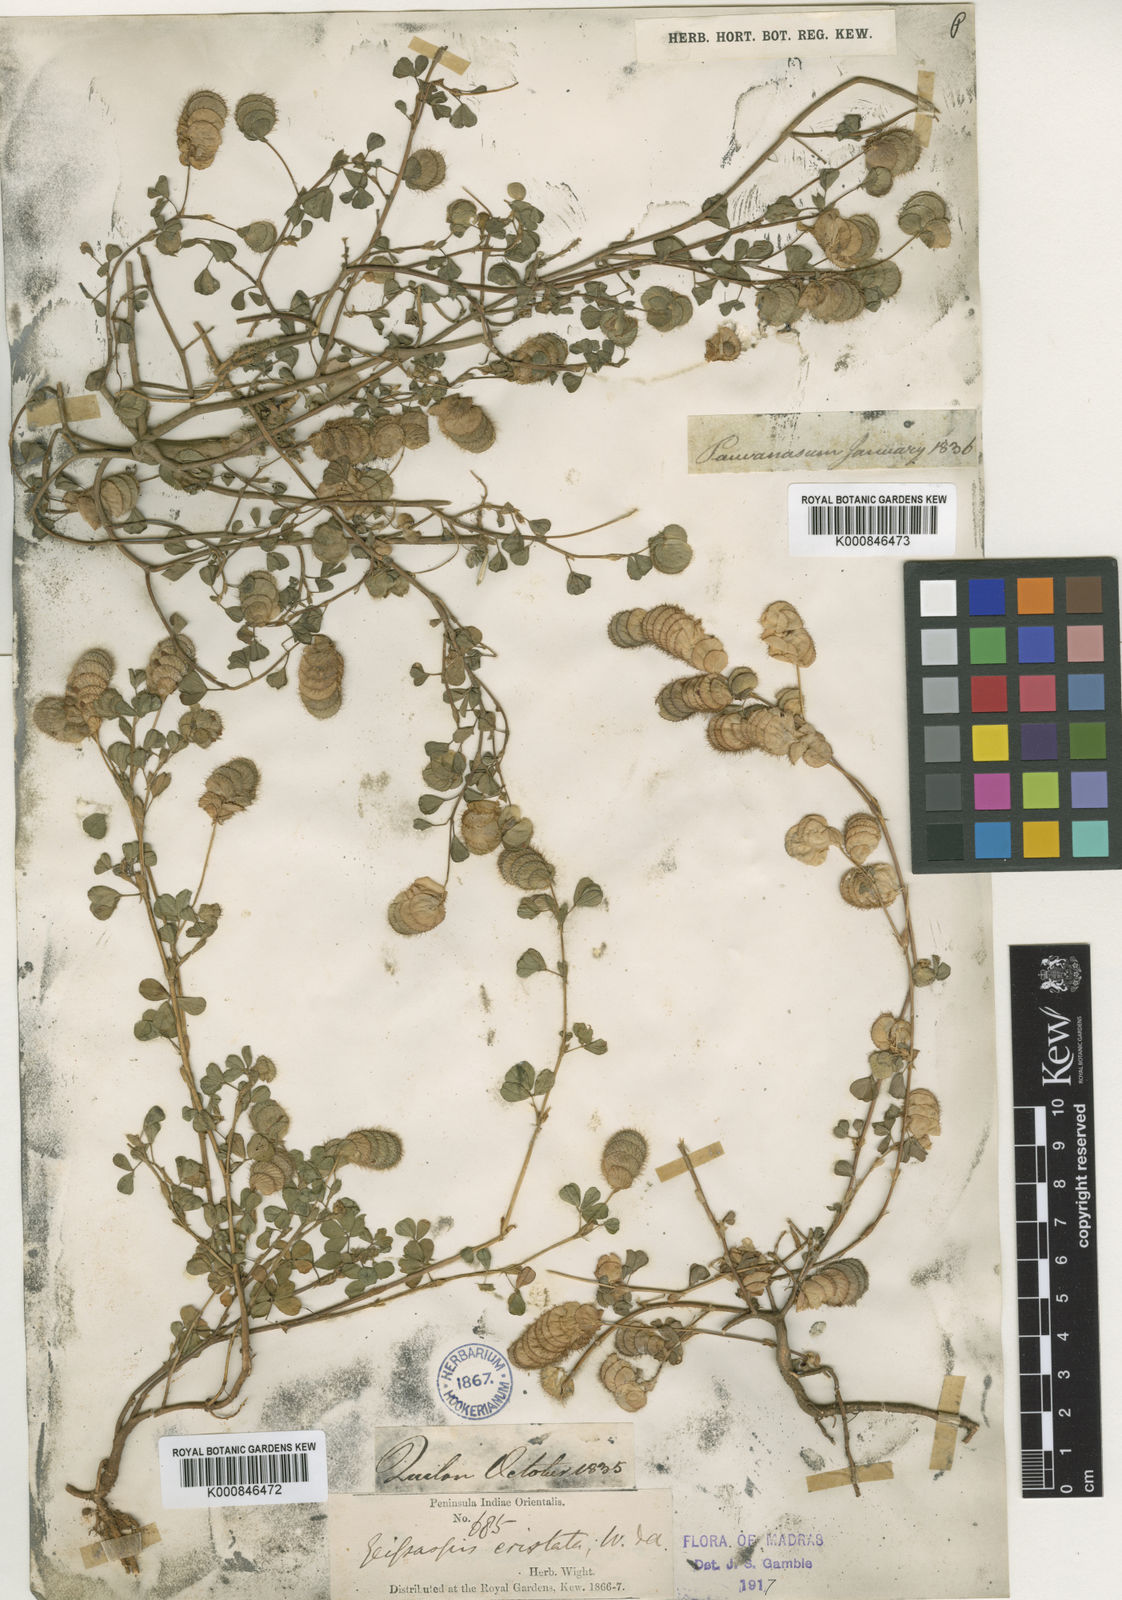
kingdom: Plantae
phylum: Tracheophyta
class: Magnoliopsida
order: Fabales
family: Fabaceae
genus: Geissaspis
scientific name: Geissaspis cristata
